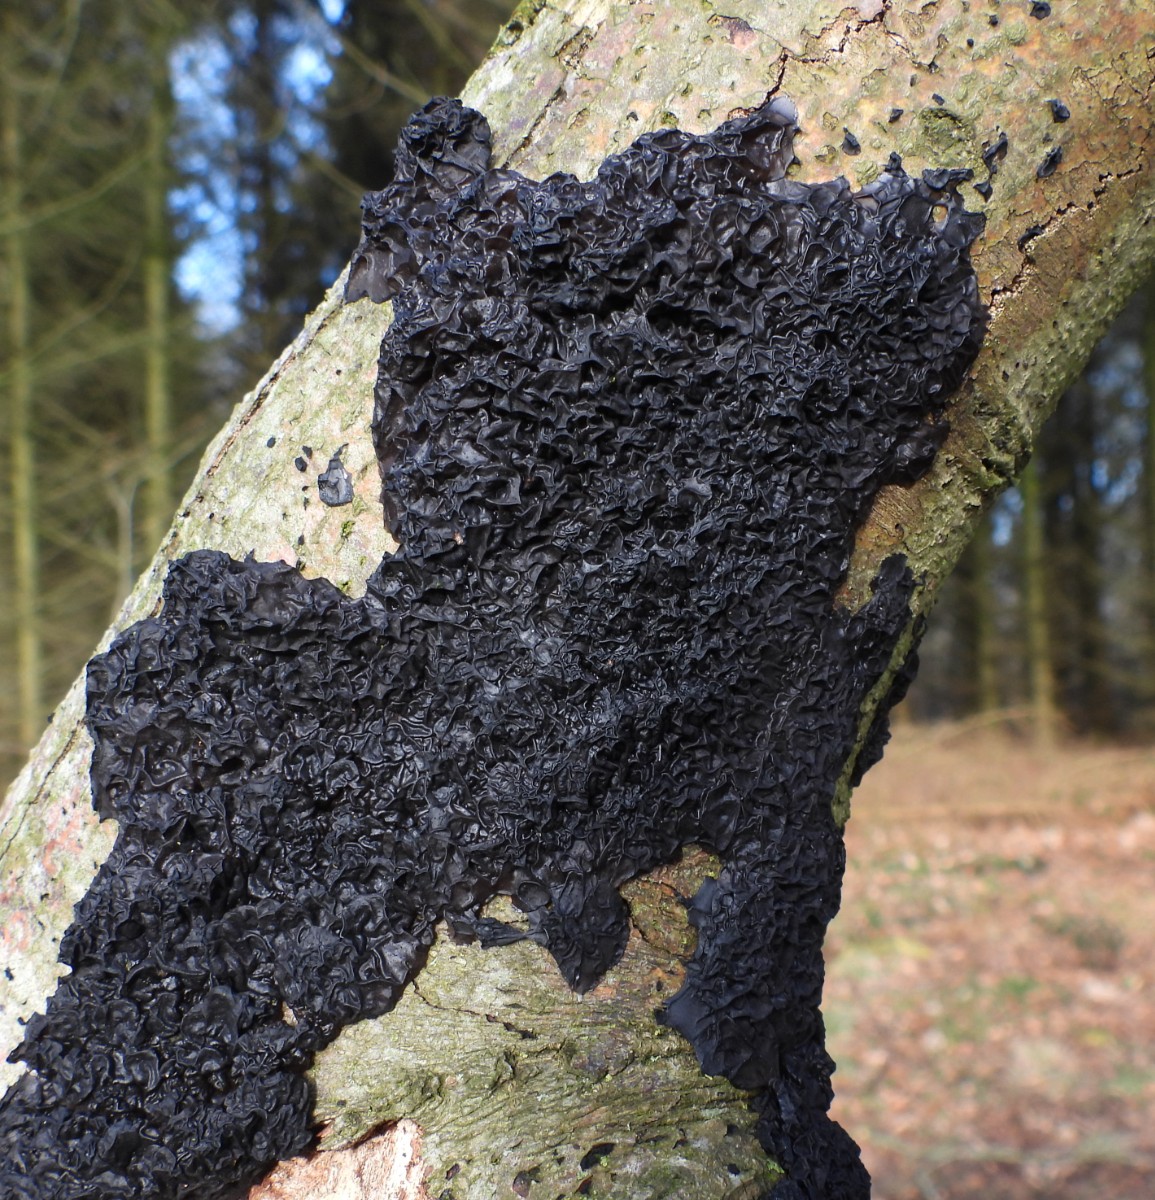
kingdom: Fungi
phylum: Basidiomycota
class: Agaricomycetes
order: Auriculariales
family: Auriculariaceae
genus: Exidia
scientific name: Exidia nigricans
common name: almindelig bævretop
